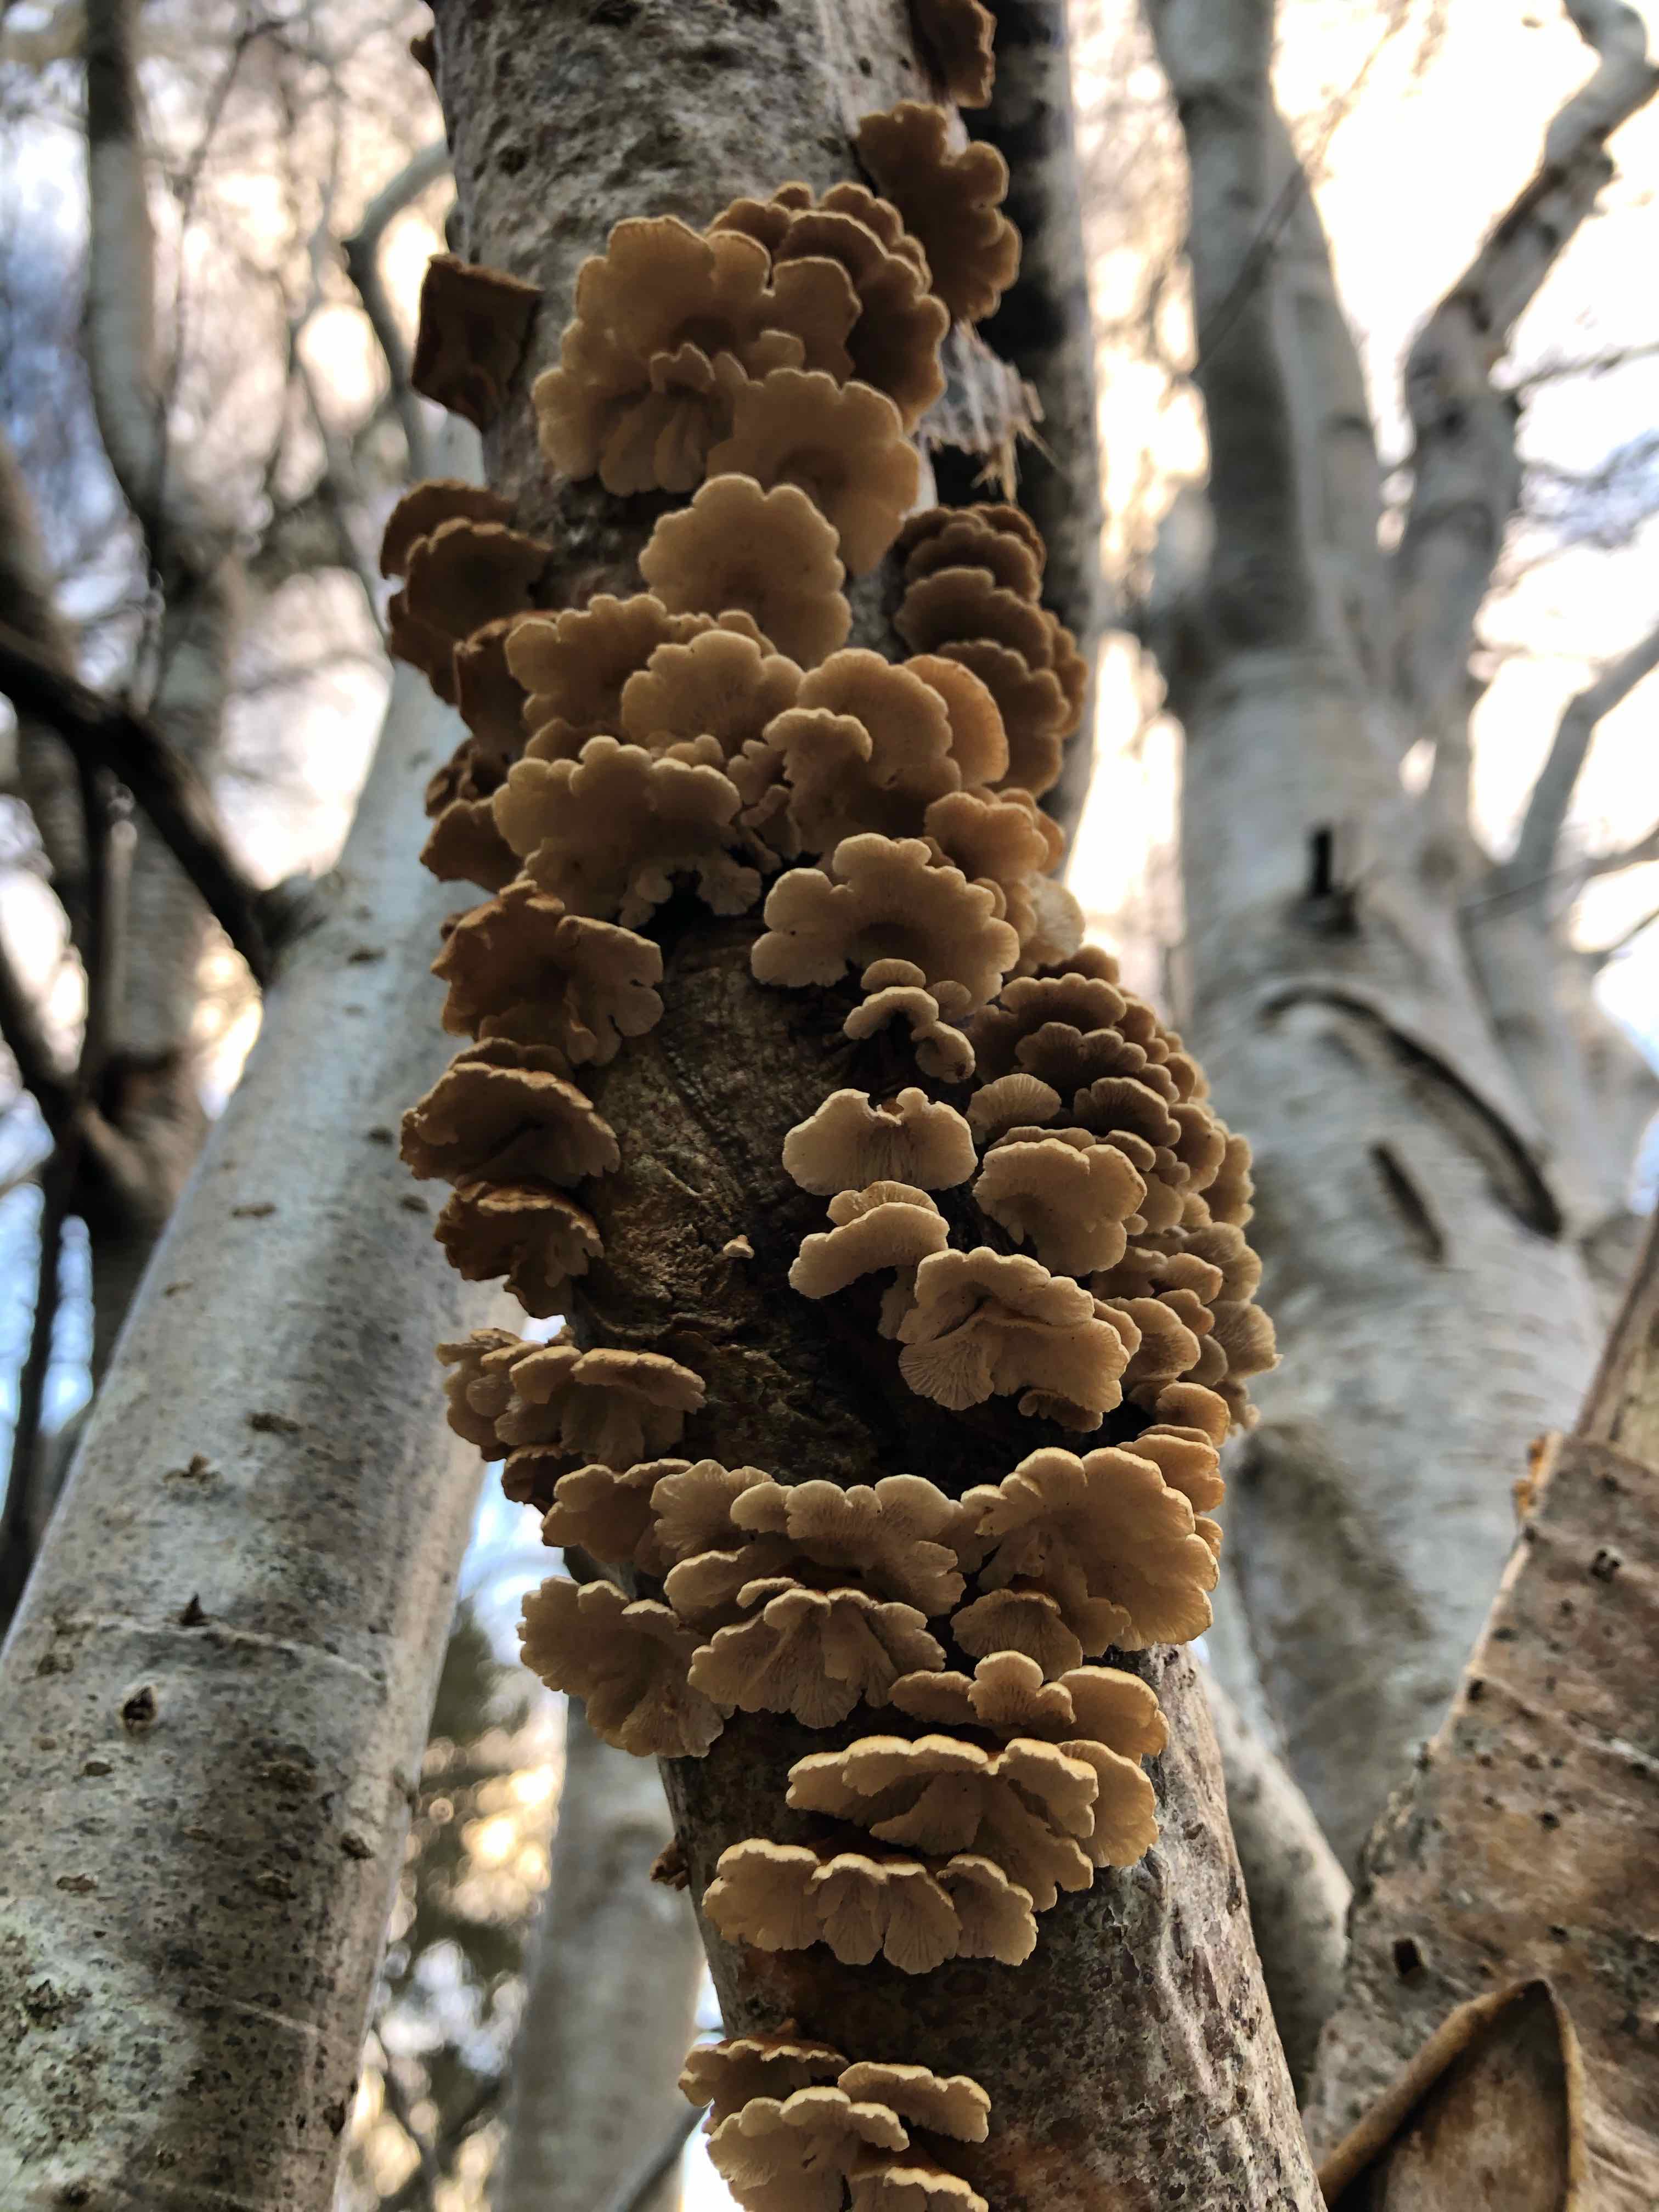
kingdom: Fungi
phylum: Basidiomycota
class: Agaricomycetes
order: Amylocorticiales
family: Amylocorticiaceae
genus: Plicaturopsis
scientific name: Plicaturopsis crispa
